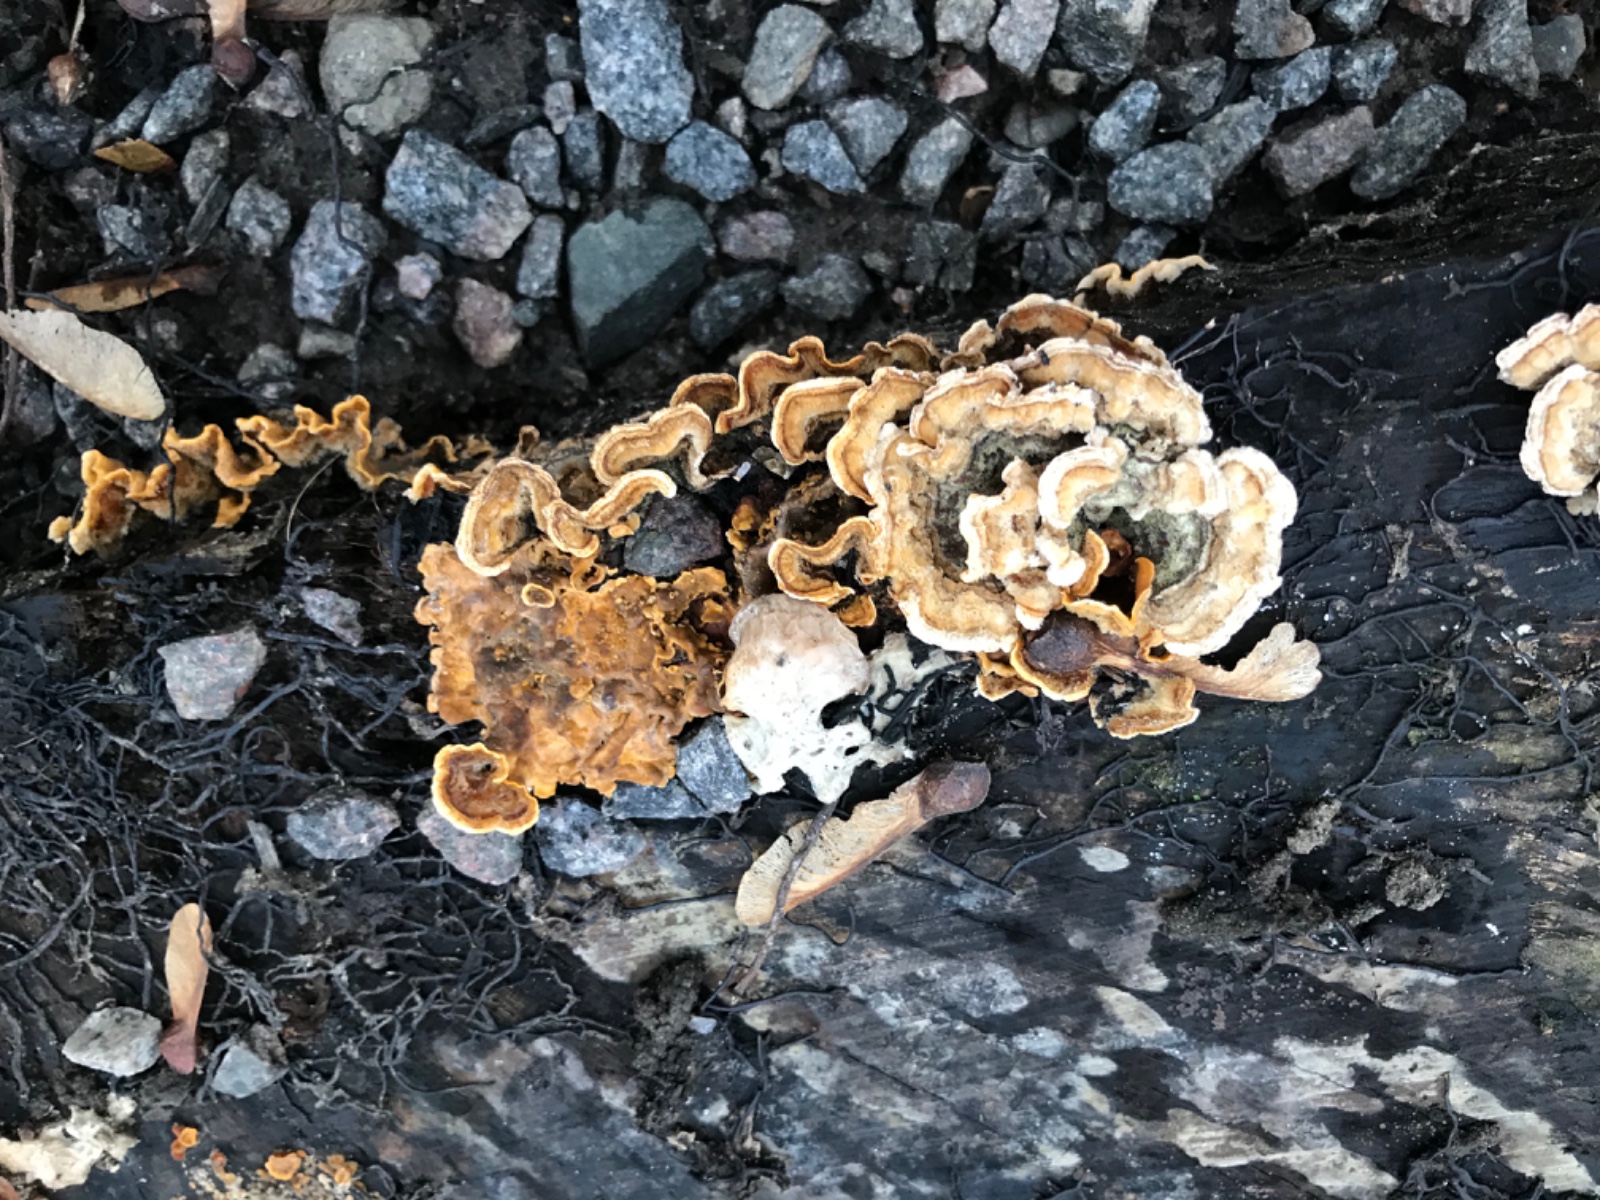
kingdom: Fungi
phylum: Basidiomycota
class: Agaricomycetes
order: Russulales
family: Stereaceae
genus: Stereum
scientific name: Stereum hirsutum
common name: håret lædersvamp
